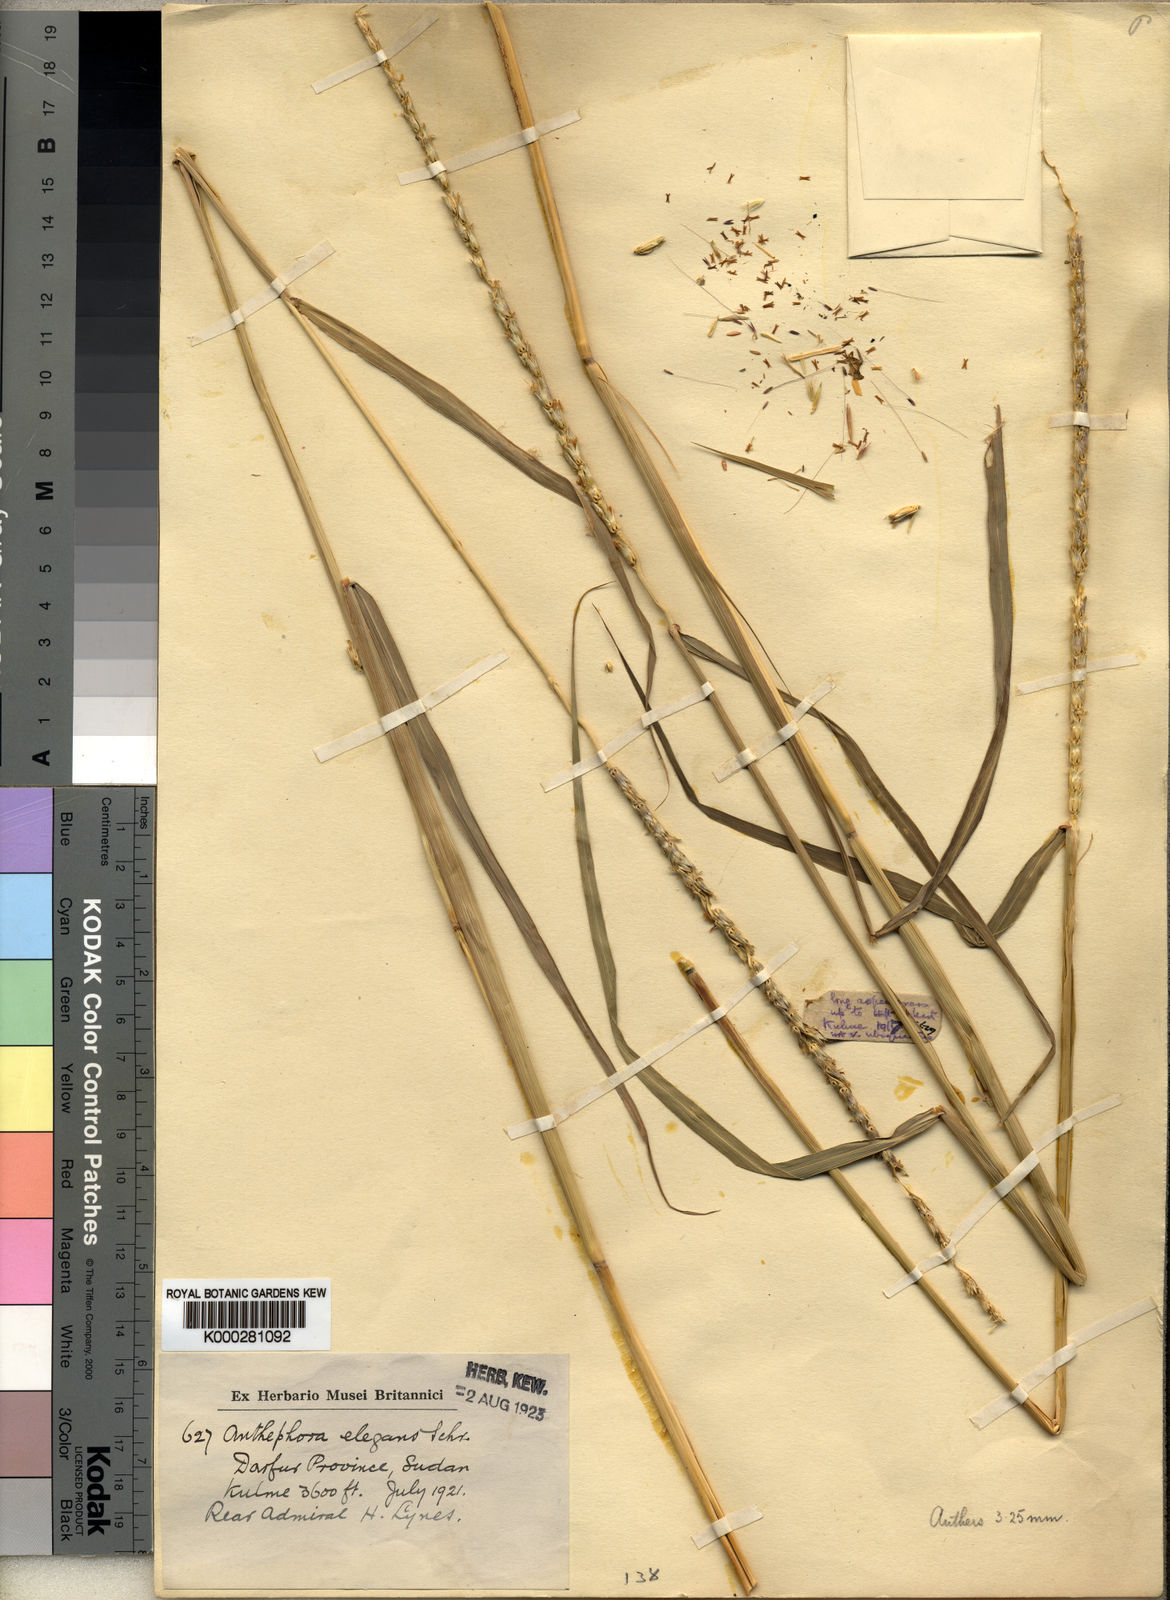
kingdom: Plantae
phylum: Tracheophyta
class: Liliopsida
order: Poales
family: Poaceae
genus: Anthephora
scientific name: Anthephora nigritana
